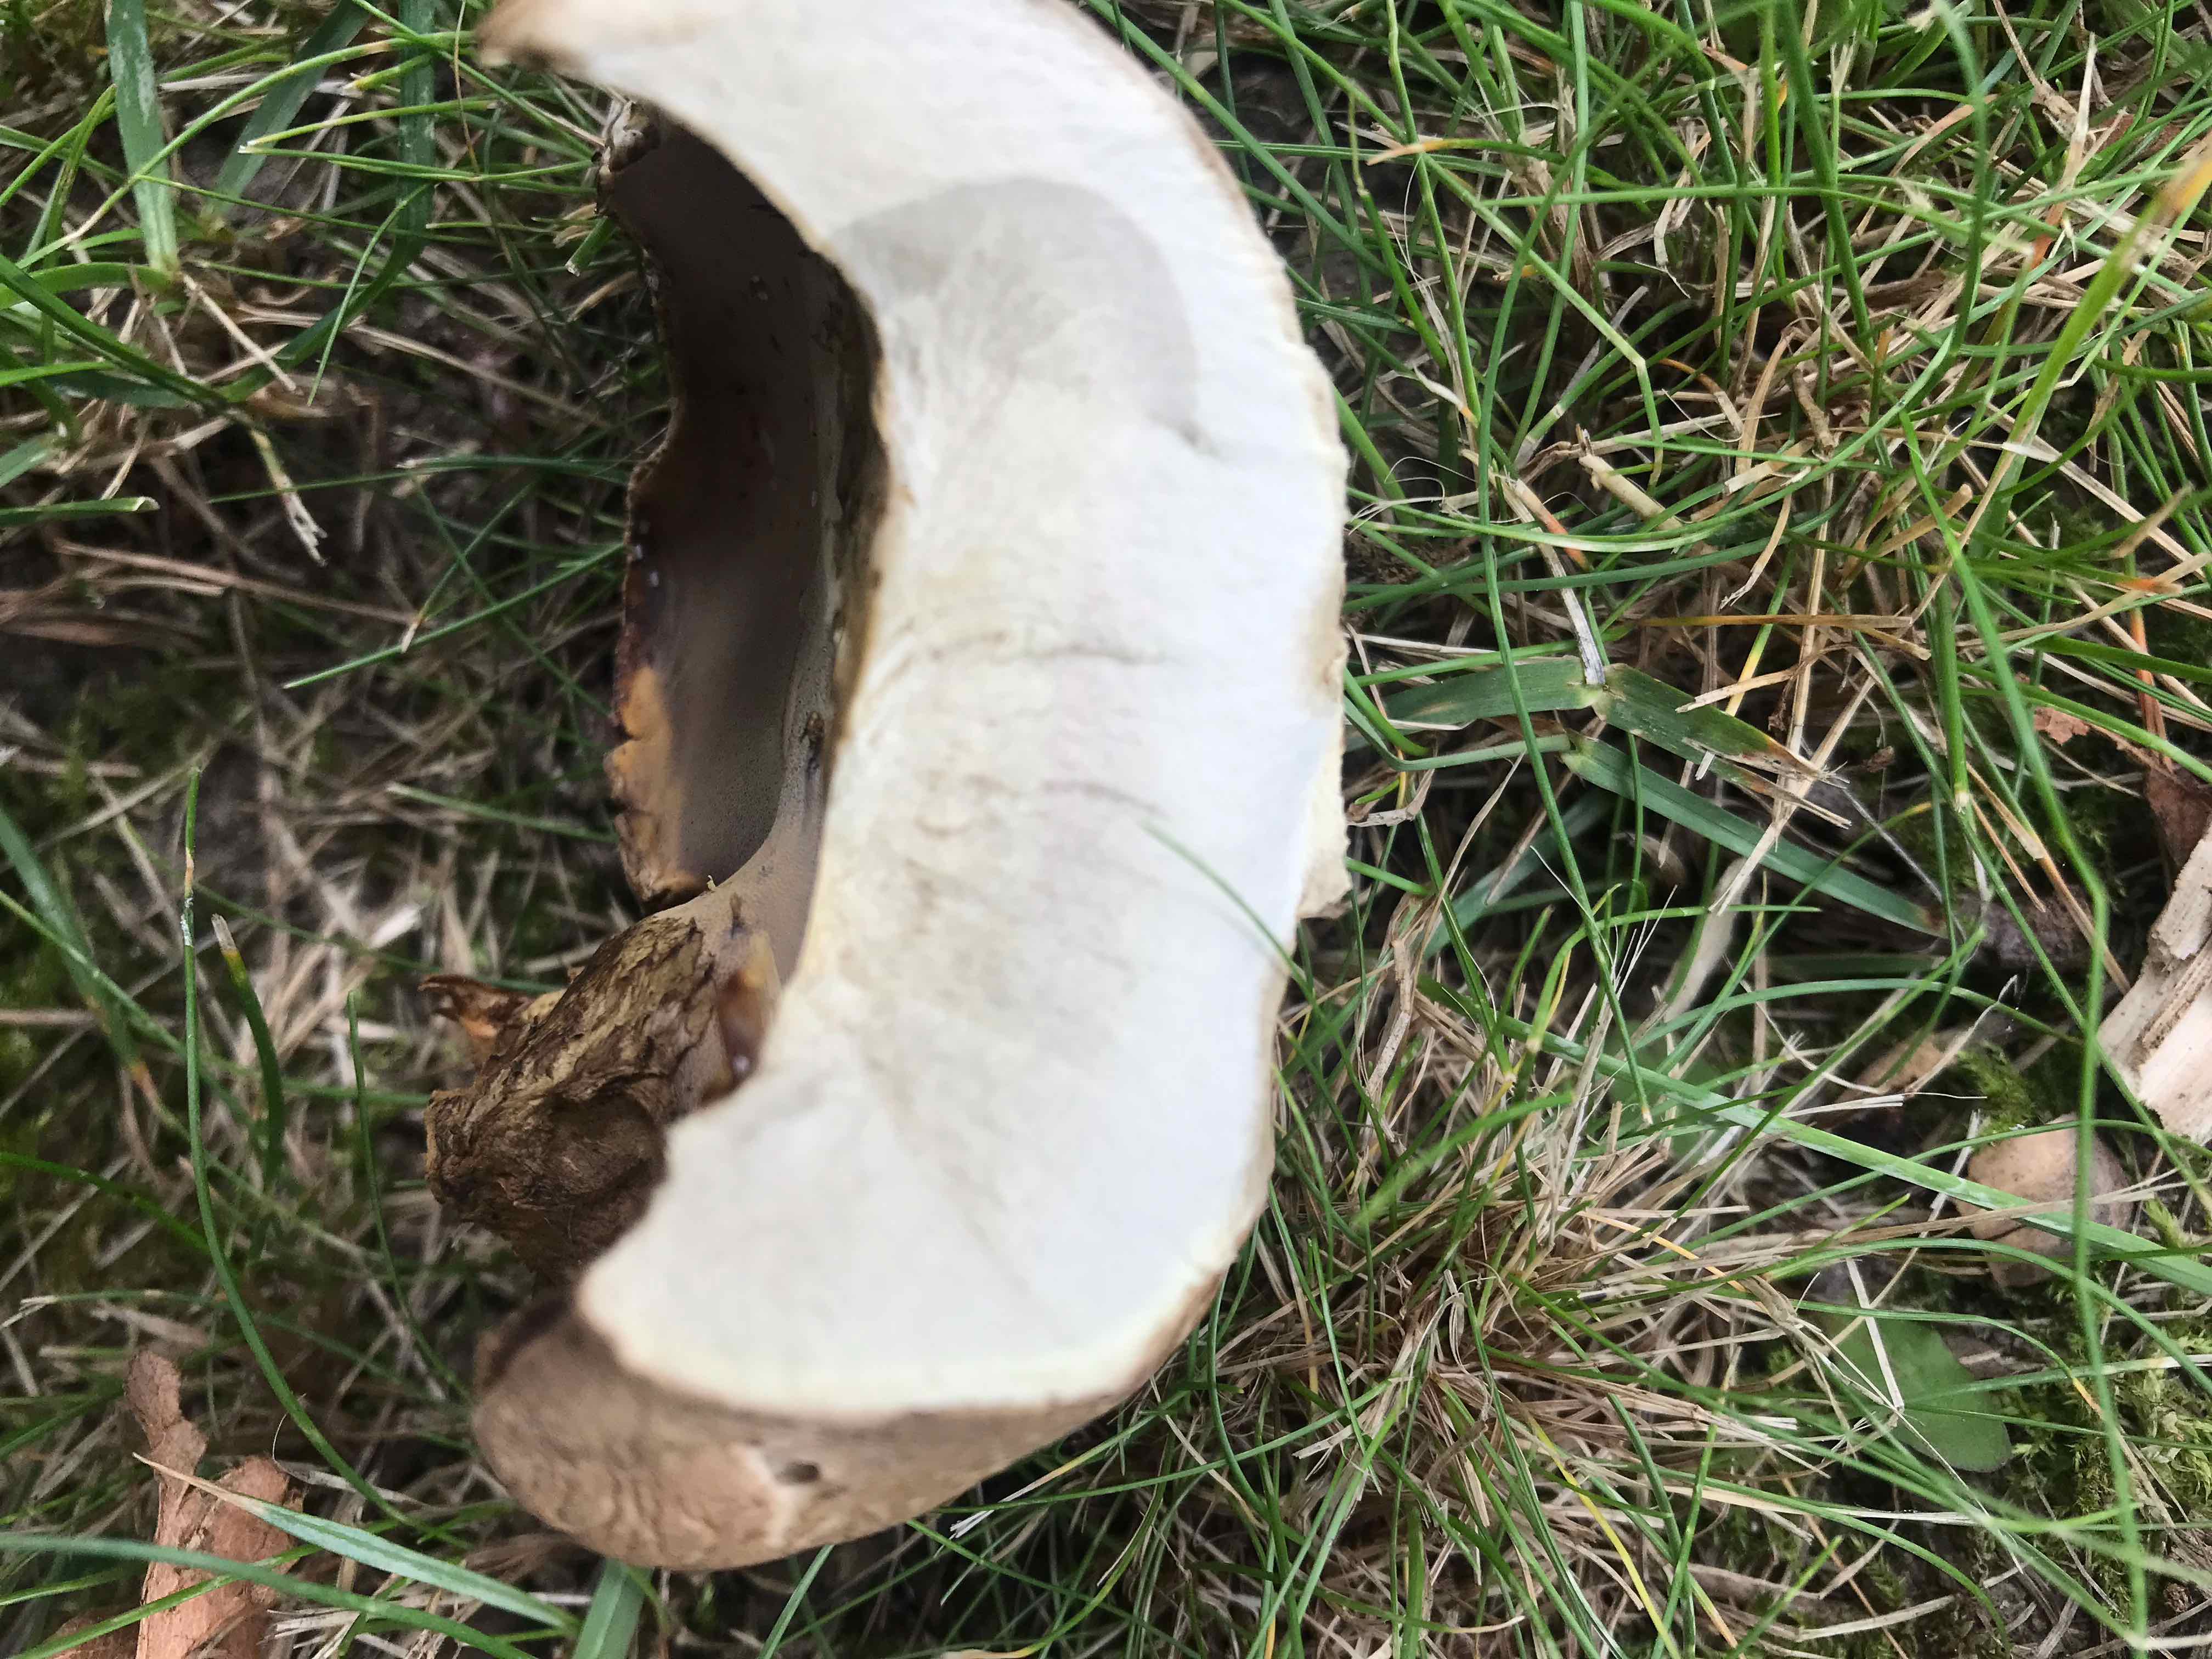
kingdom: Fungi
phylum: Basidiomycota
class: Agaricomycetes
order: Boletales
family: Boletaceae
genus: Caloboletus
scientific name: Caloboletus radicans
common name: rod-rørhat
